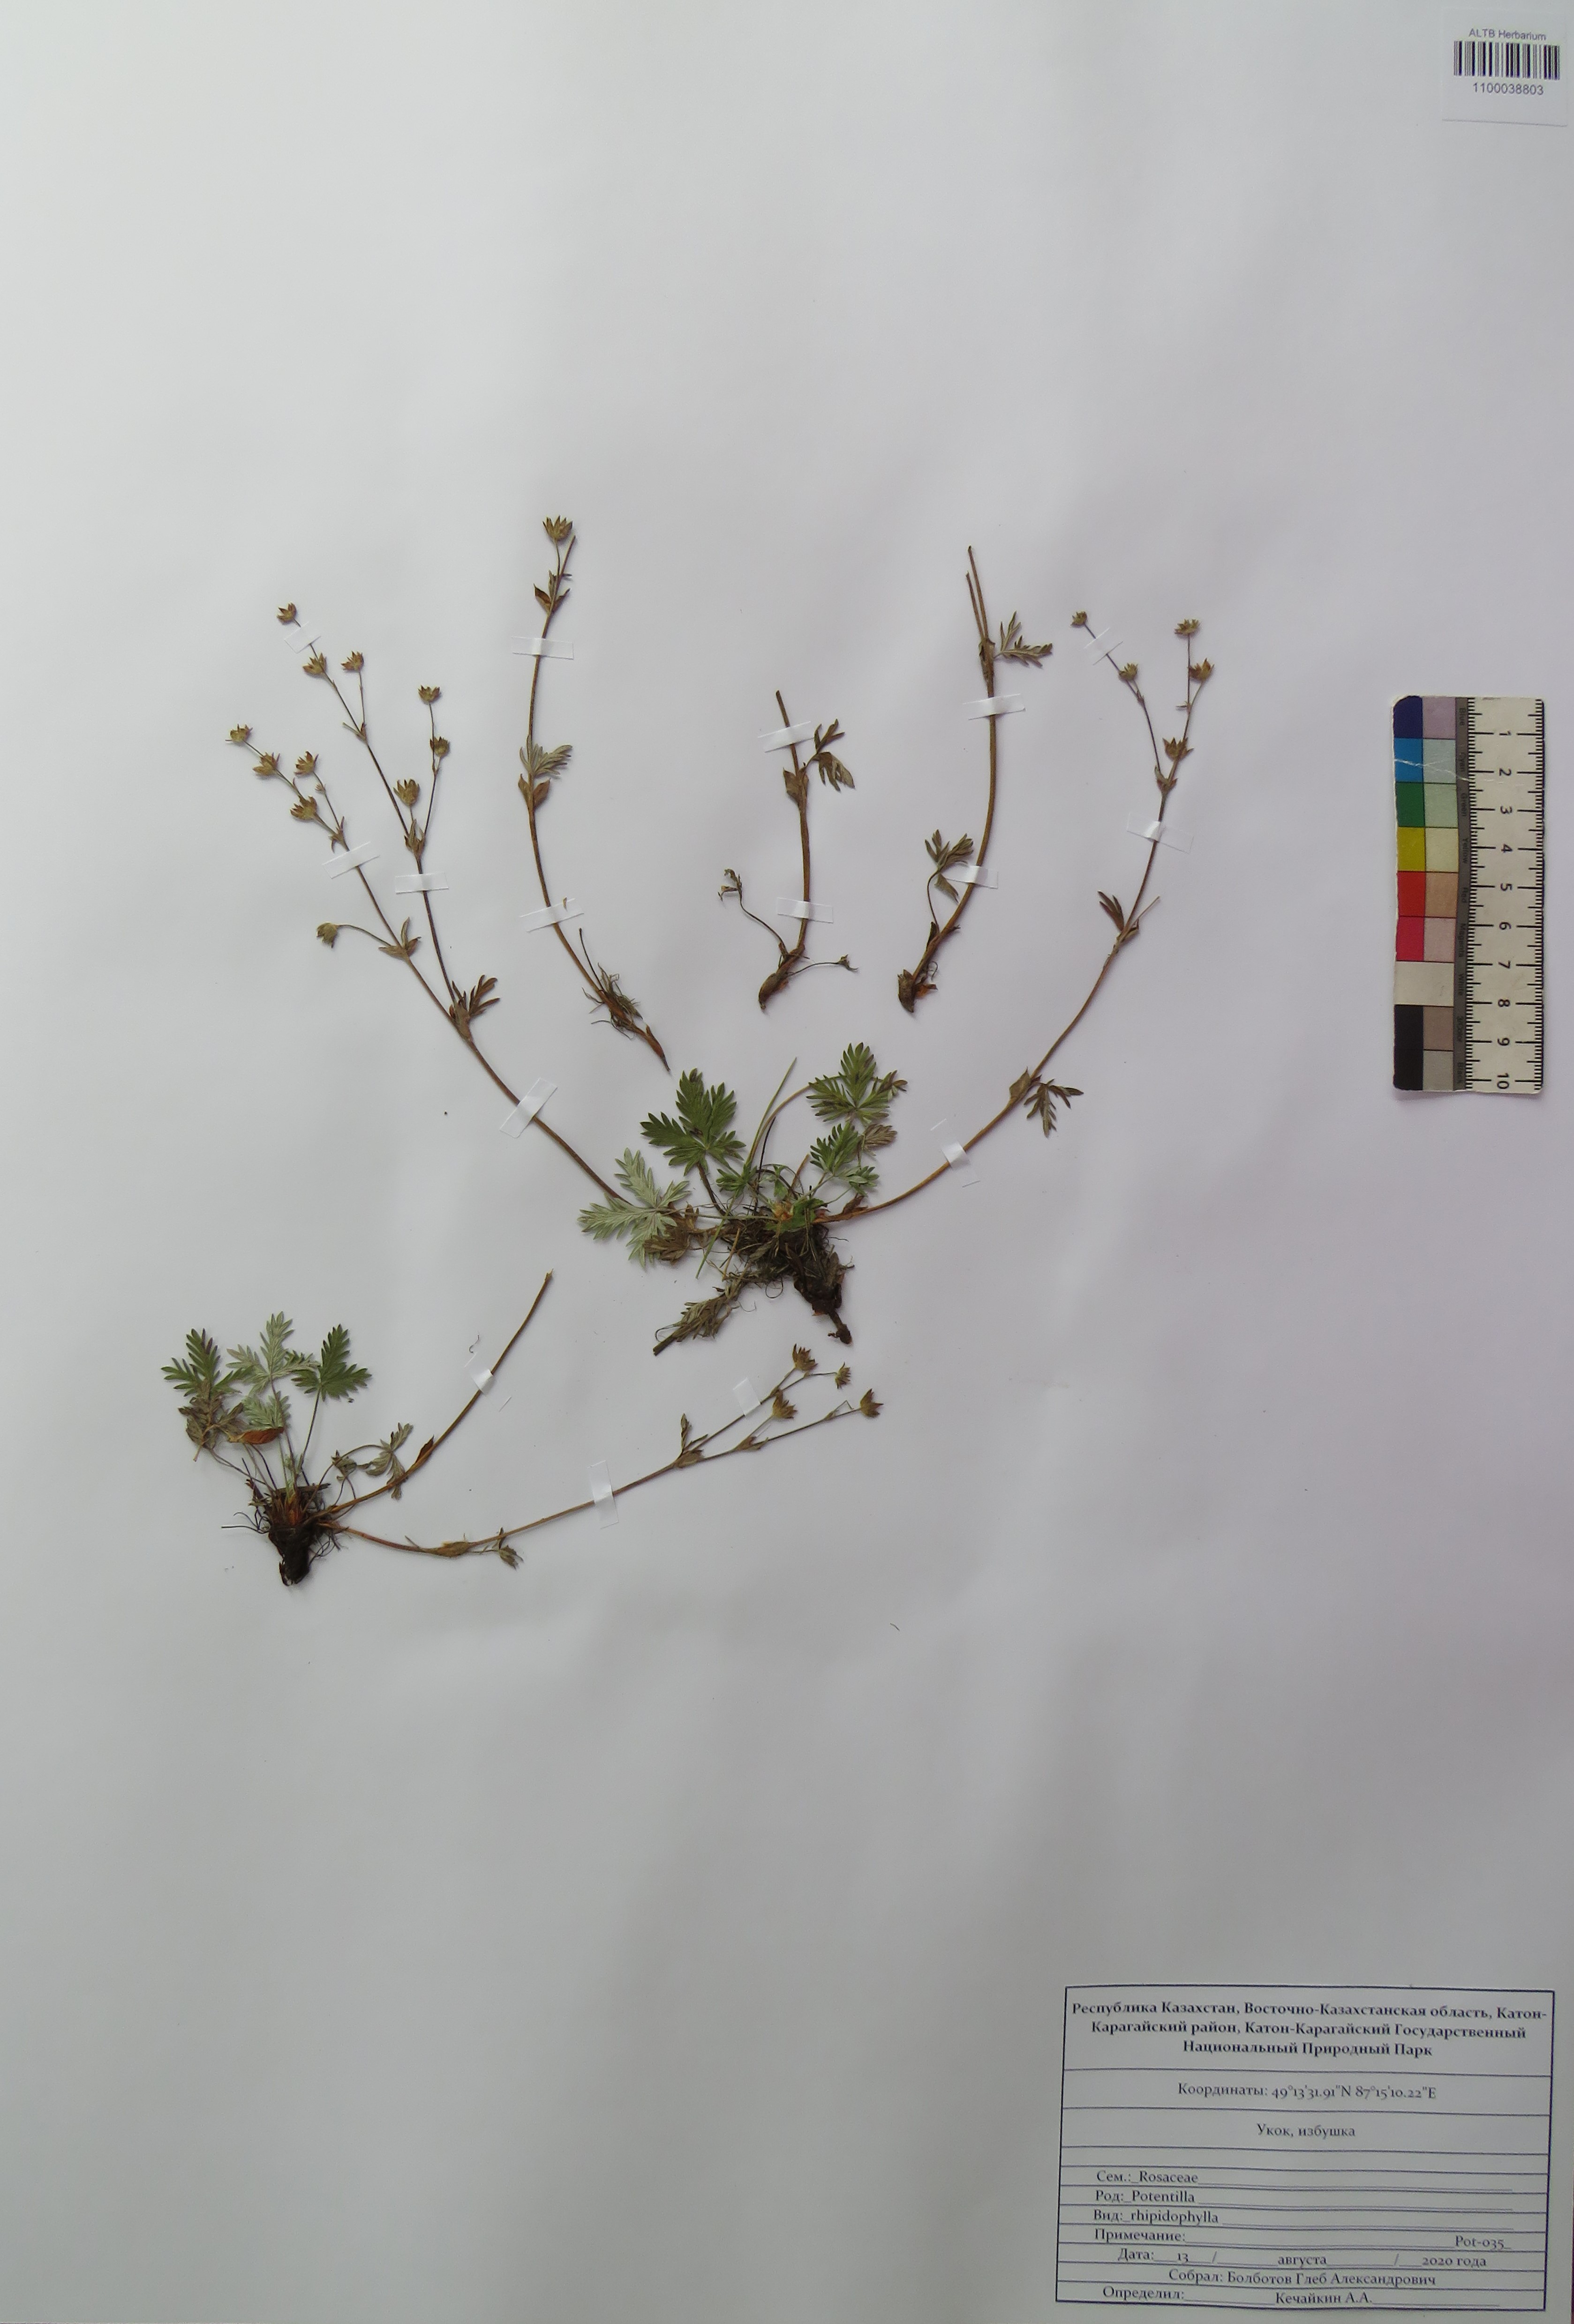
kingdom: Plantae
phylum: Tracheophyta
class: Magnoliopsida
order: Rosales
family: Rosaceae
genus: Potentilla
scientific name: Potentilla rhipidophylla
